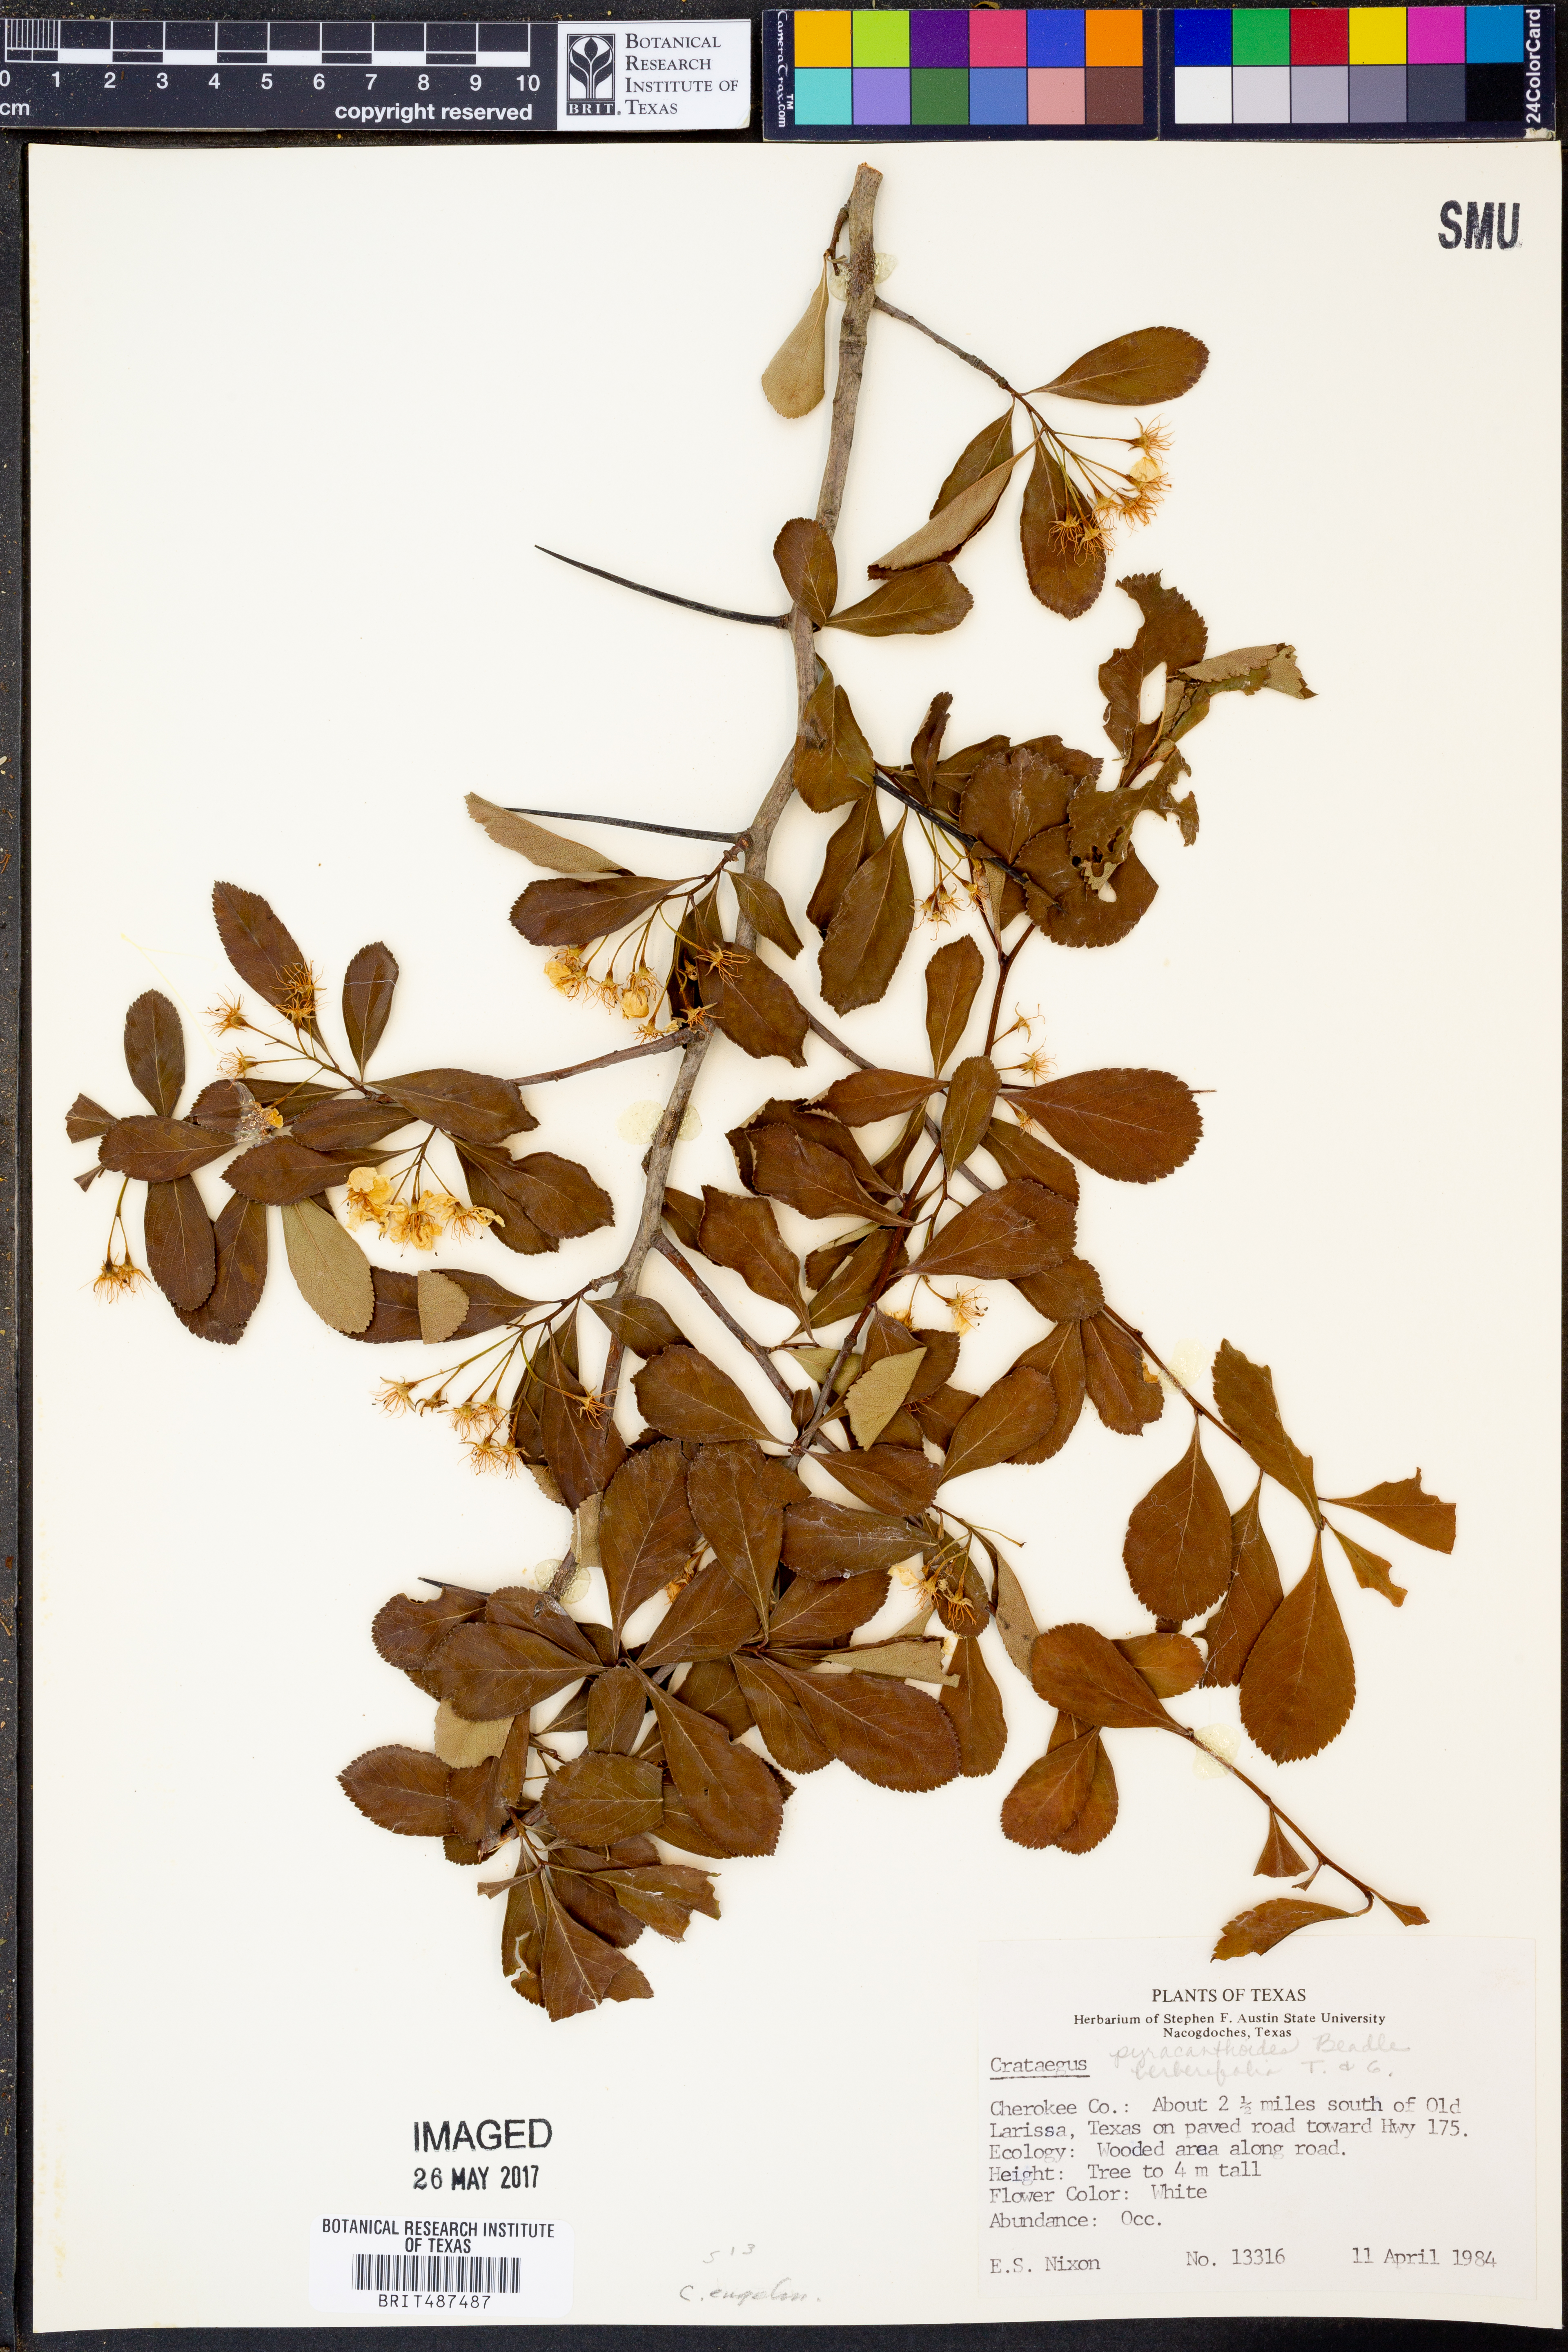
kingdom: Plantae
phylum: Tracheophyta
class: Magnoliopsida
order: Rosales
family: Rosaceae
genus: Crataegus
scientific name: Crataegus crus-galli
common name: Cockspurthorn
